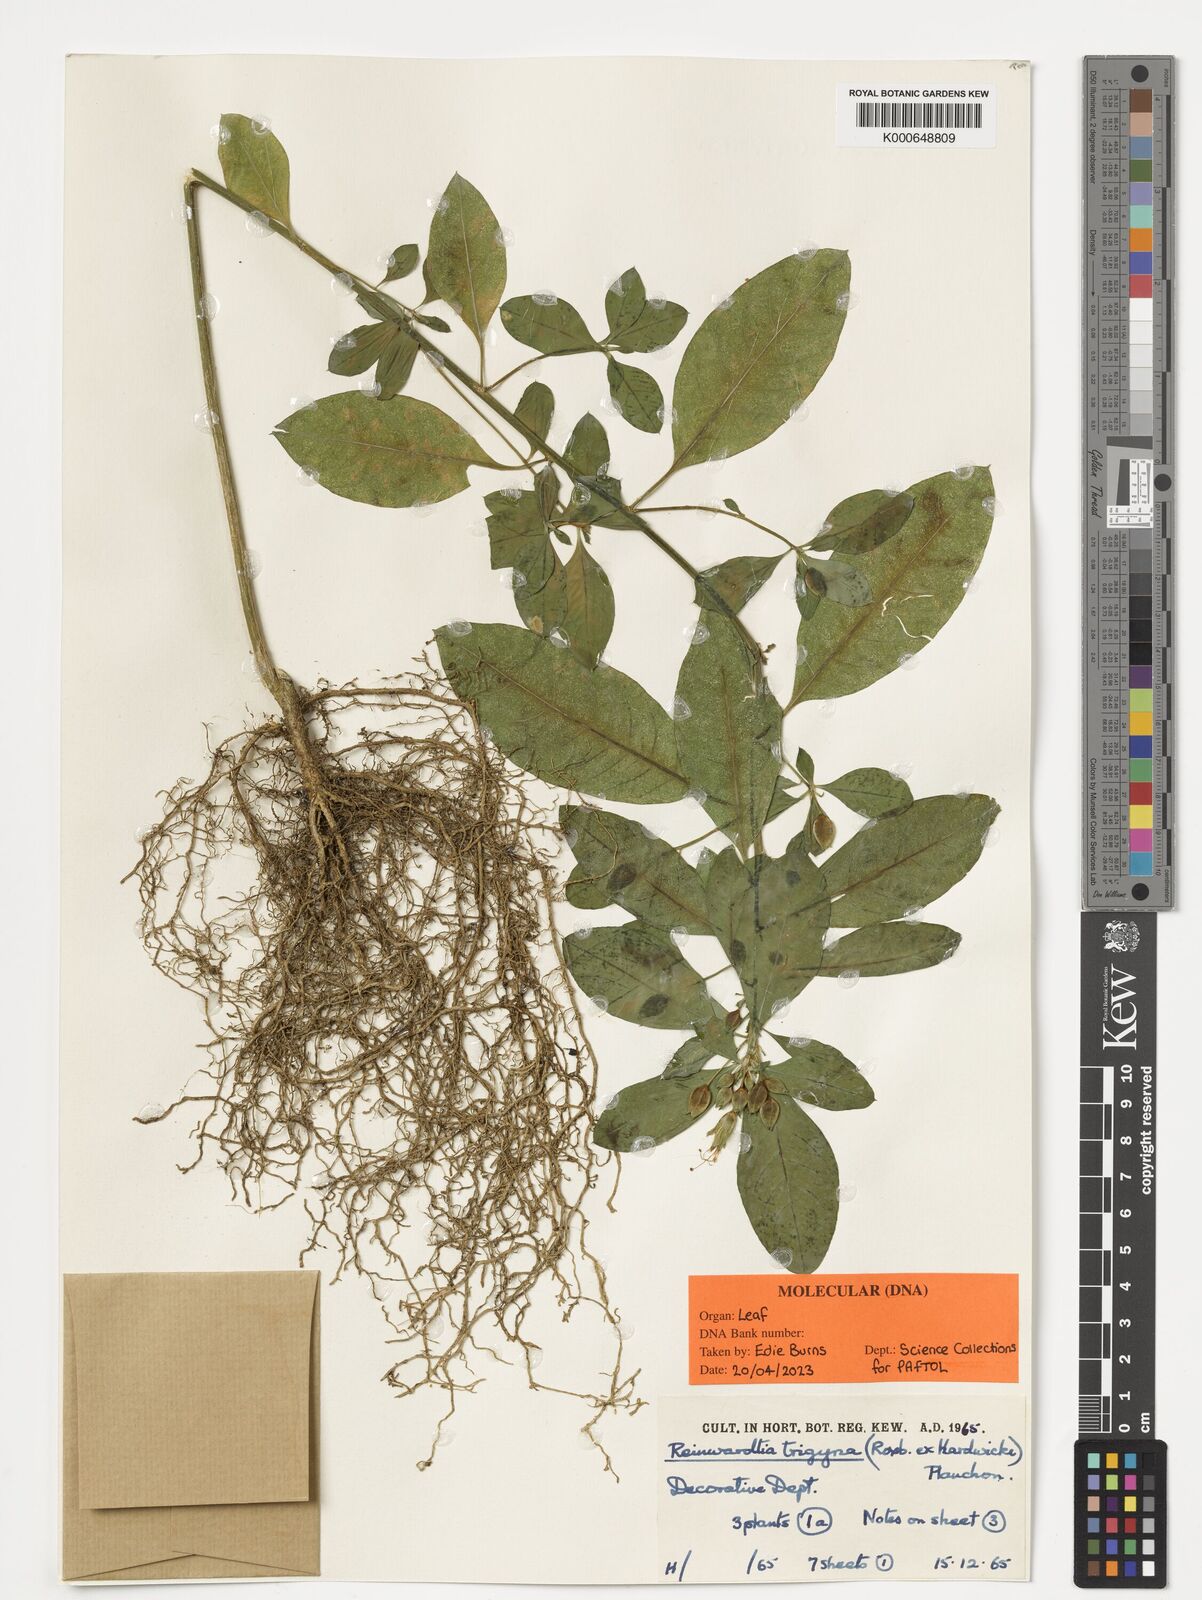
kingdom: Plantae
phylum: Tracheophyta
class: Magnoliopsida
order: Malpighiales
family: Linaceae
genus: Reinwardtia
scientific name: Reinwardtia indica
